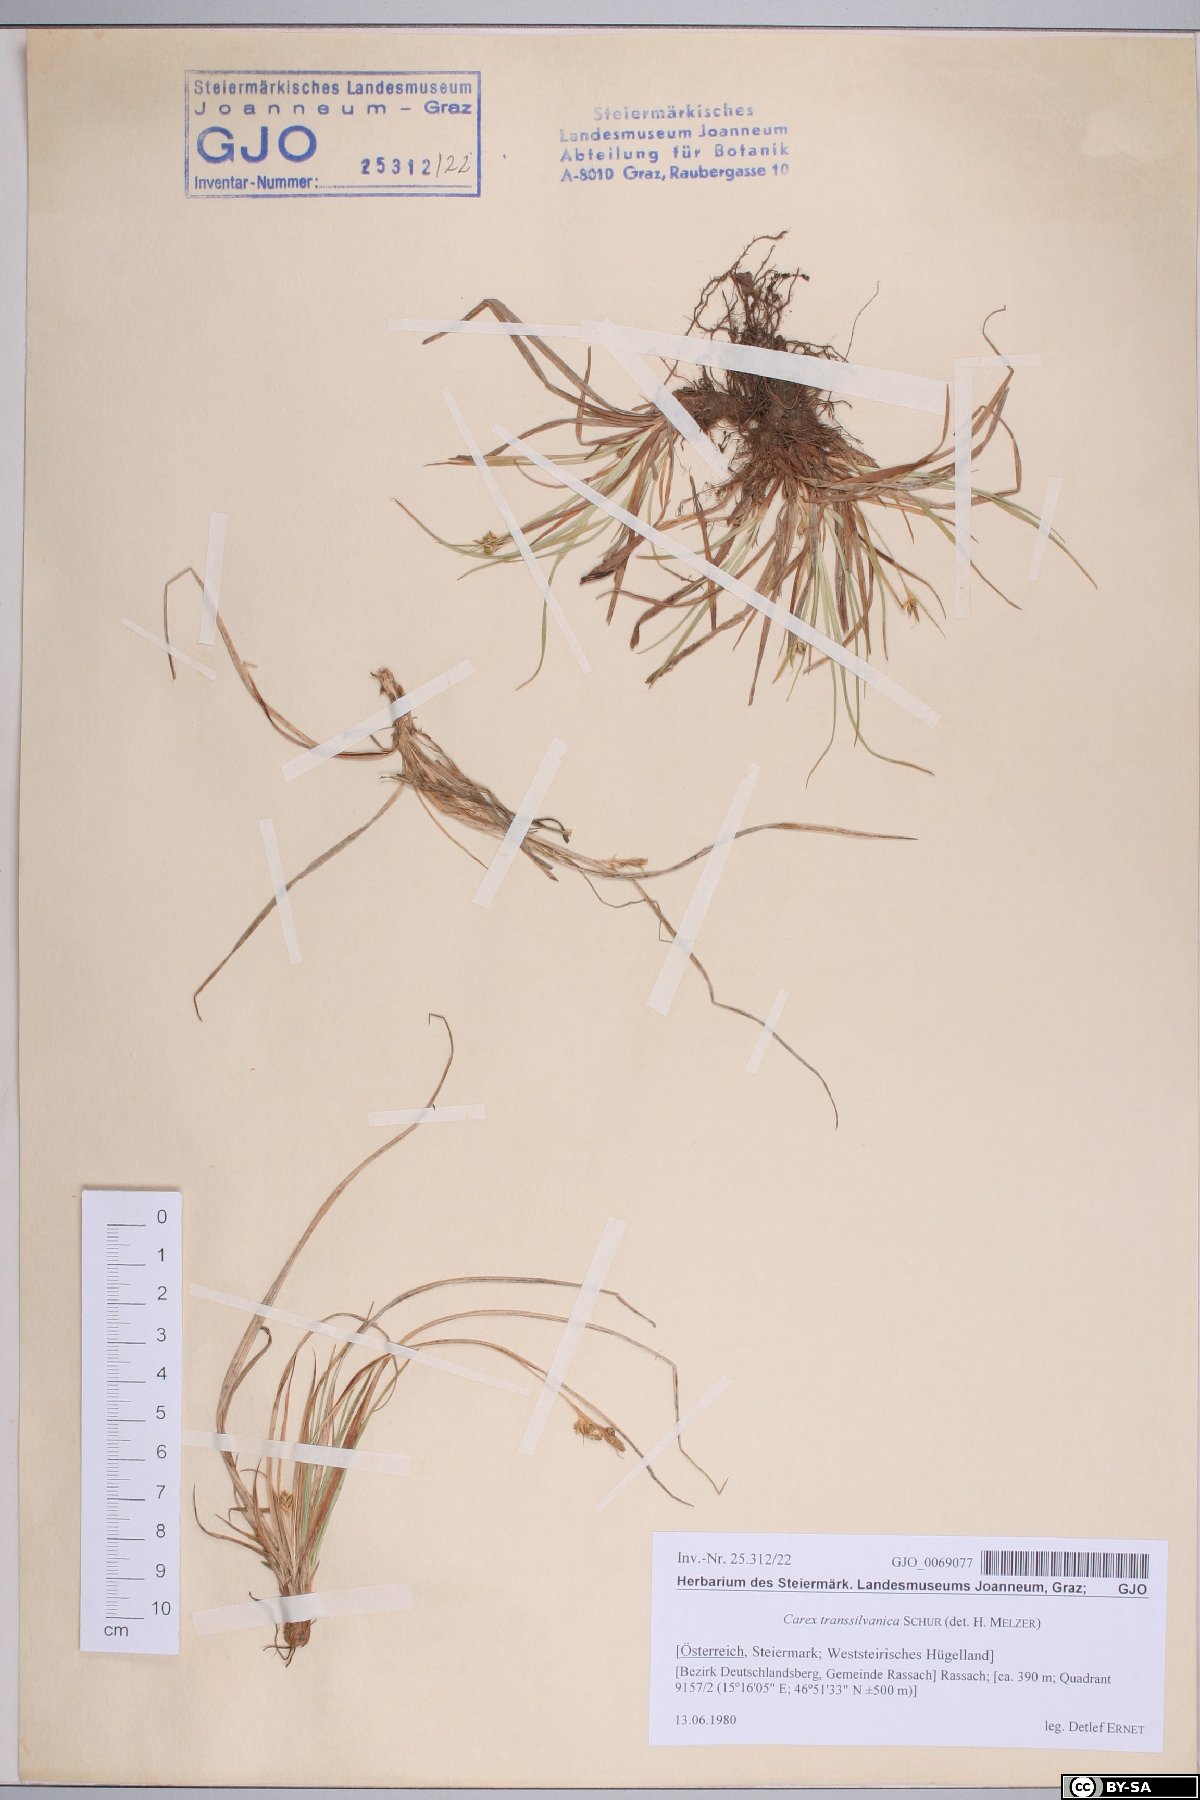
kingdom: Plantae
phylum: Tracheophyta
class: Liliopsida
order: Poales
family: Cyperaceae
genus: Carex
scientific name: Carex depressa
